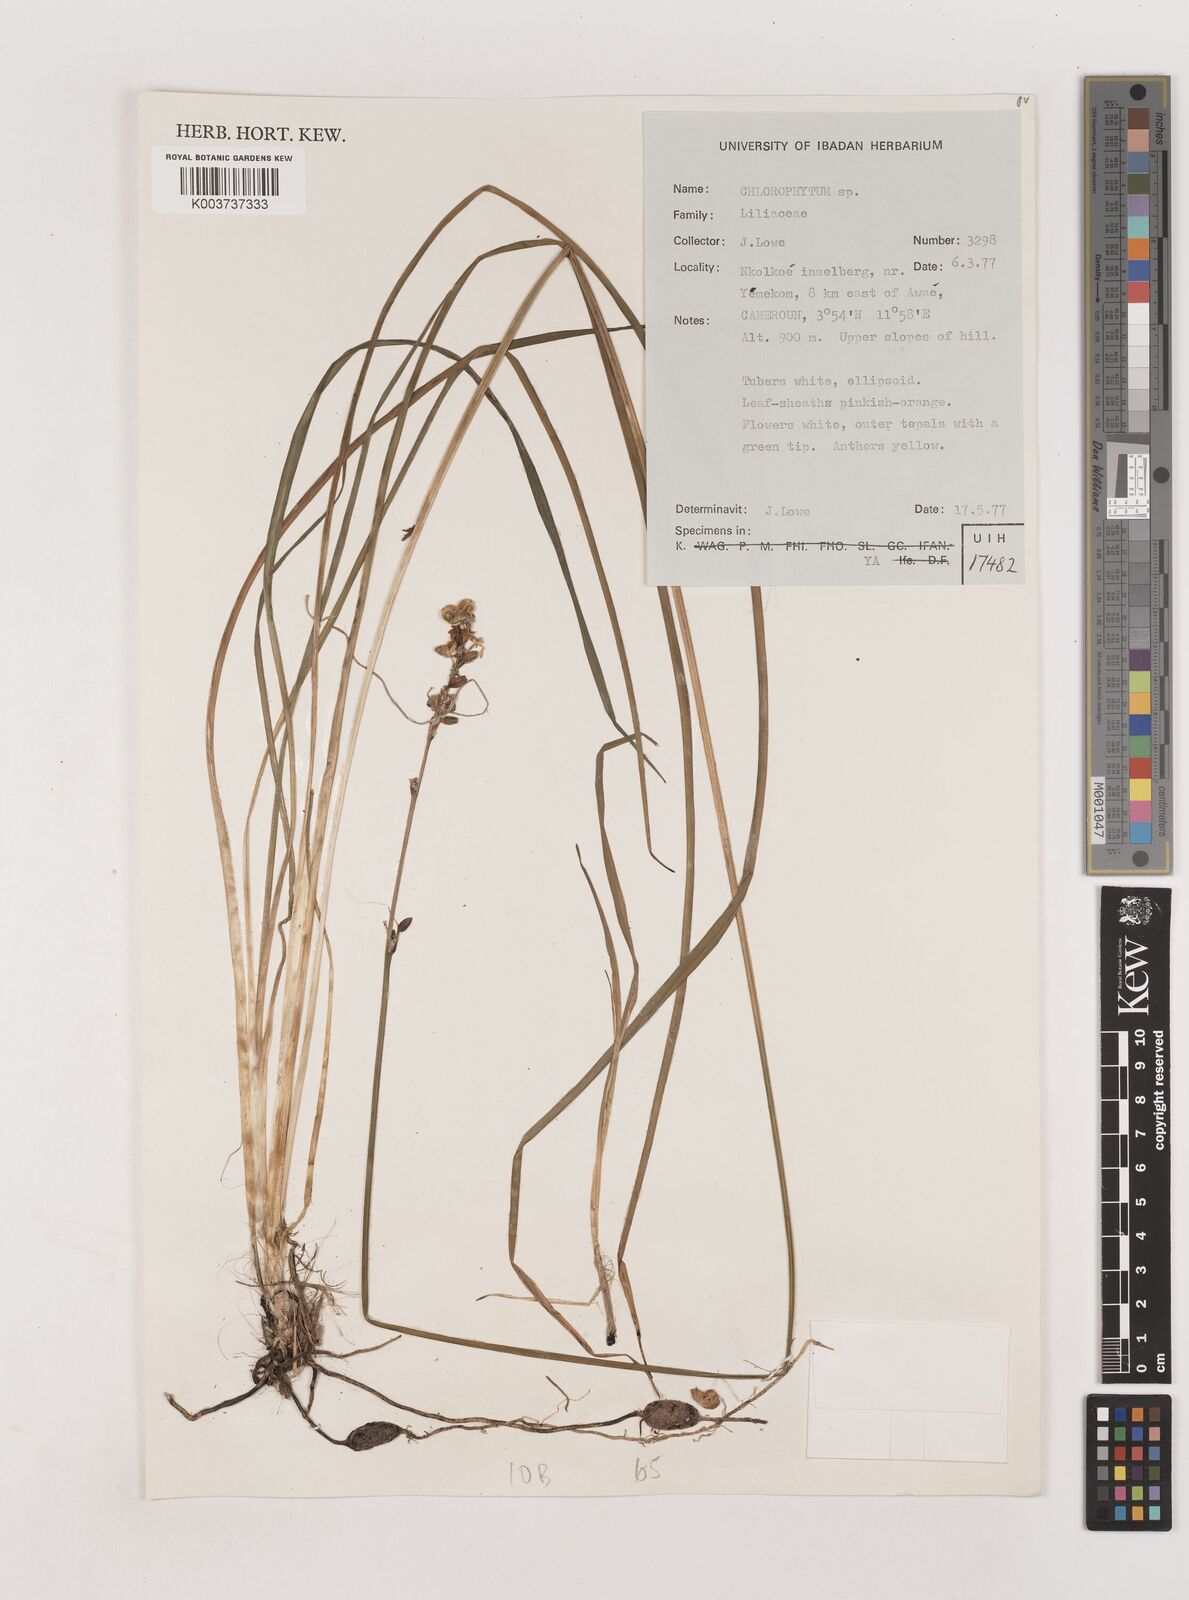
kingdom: Plantae
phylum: Tracheophyta
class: Liliopsida
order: Asparagales
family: Asparagaceae
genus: Chlorophytum
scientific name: Chlorophytum
